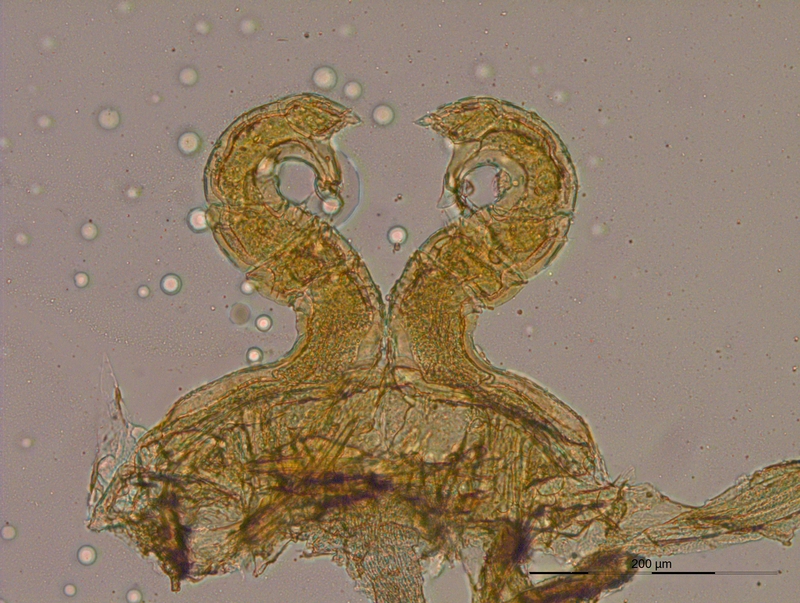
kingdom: Animalia
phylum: Arthropoda
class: Diplopoda
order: Julida
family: Blaniulidae
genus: Nopoiulus
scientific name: Nopoiulus
